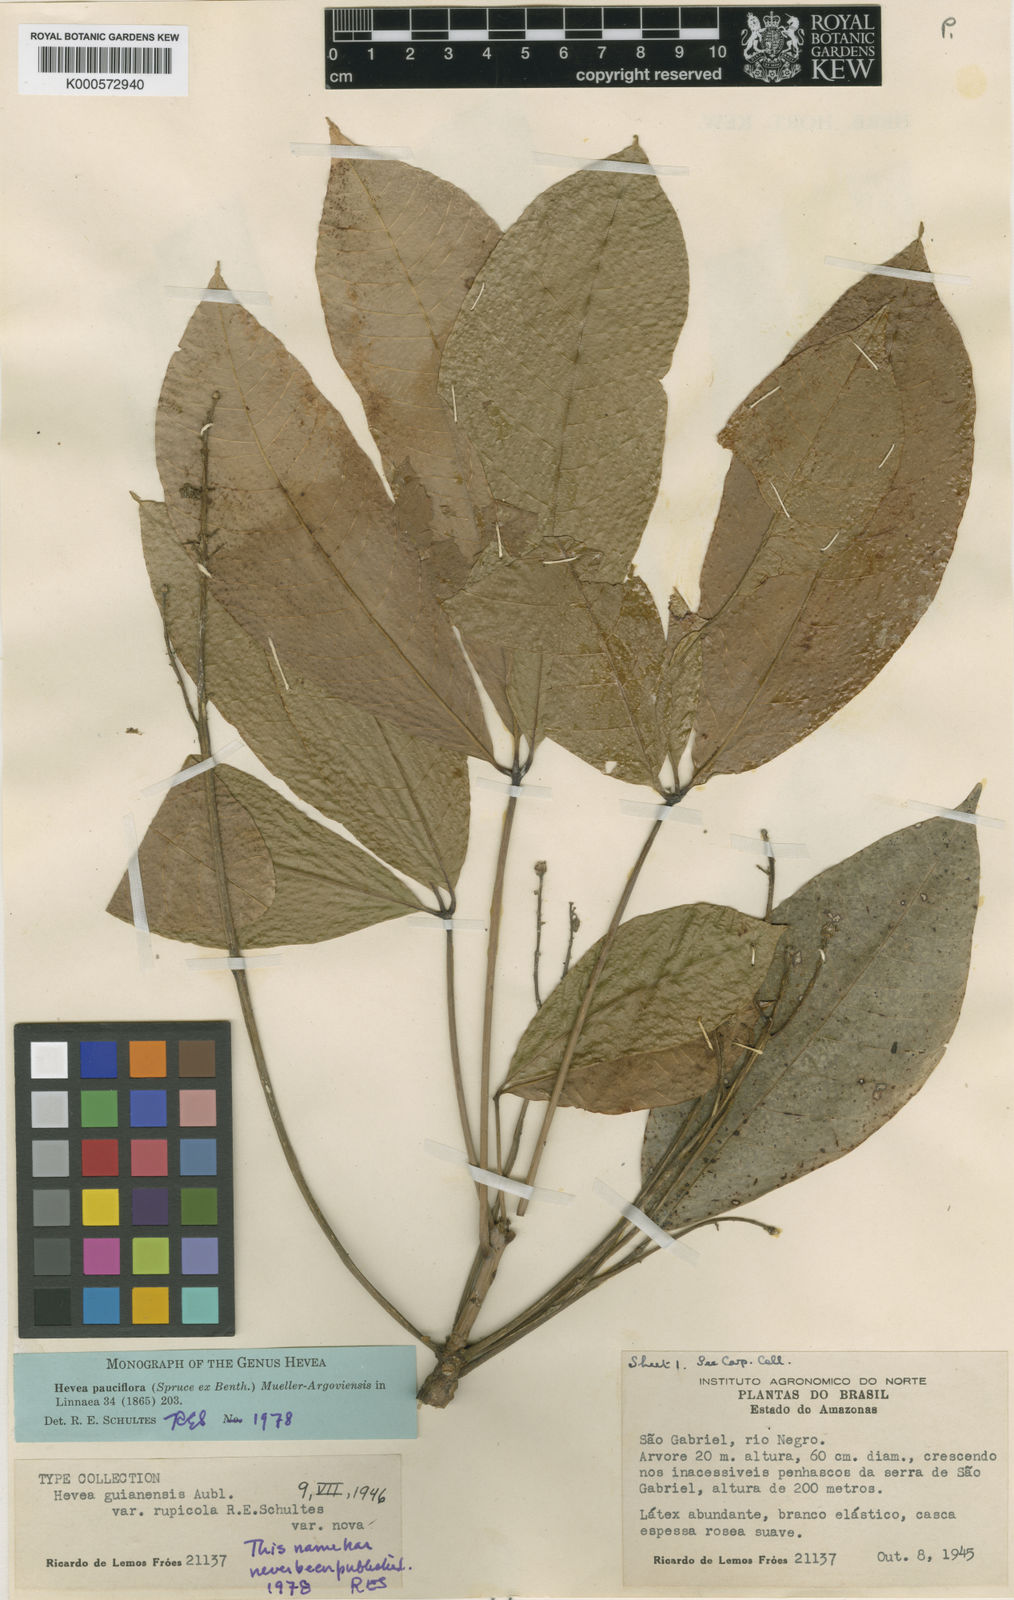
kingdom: Plantae
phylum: Tracheophyta
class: Magnoliopsida
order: Malpighiales
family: Euphorbiaceae
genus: Hevea
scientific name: Hevea
